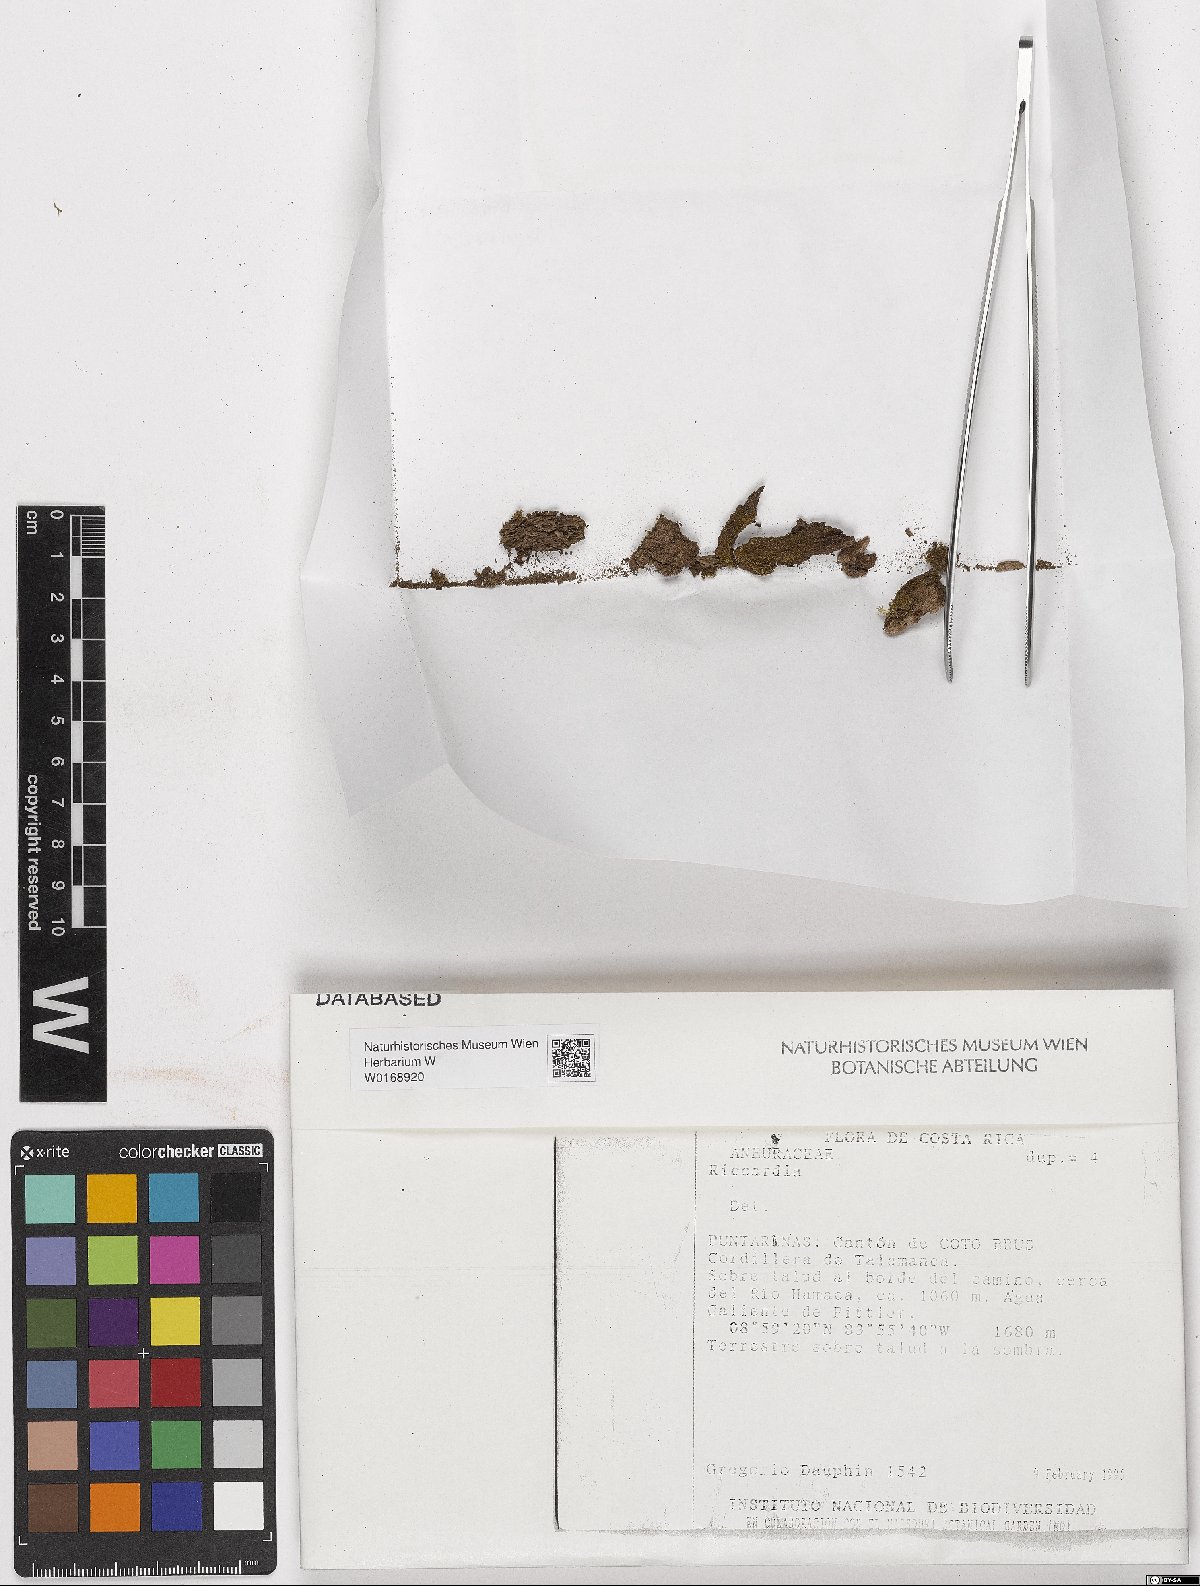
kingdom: Plantae
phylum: Marchantiophyta
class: Jungermanniopsida
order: Metzgeriales
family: Aneuraceae
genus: Riccardia
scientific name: Riccardia
